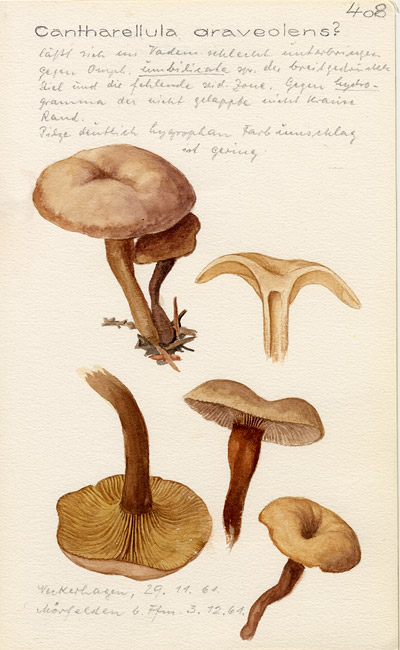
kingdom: Fungi
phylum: Basidiomycota
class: Agaricomycetes
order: Agaricales
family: Tricholomataceae
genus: Pseudoomphalina
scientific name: Pseudoomphalina compressipes
